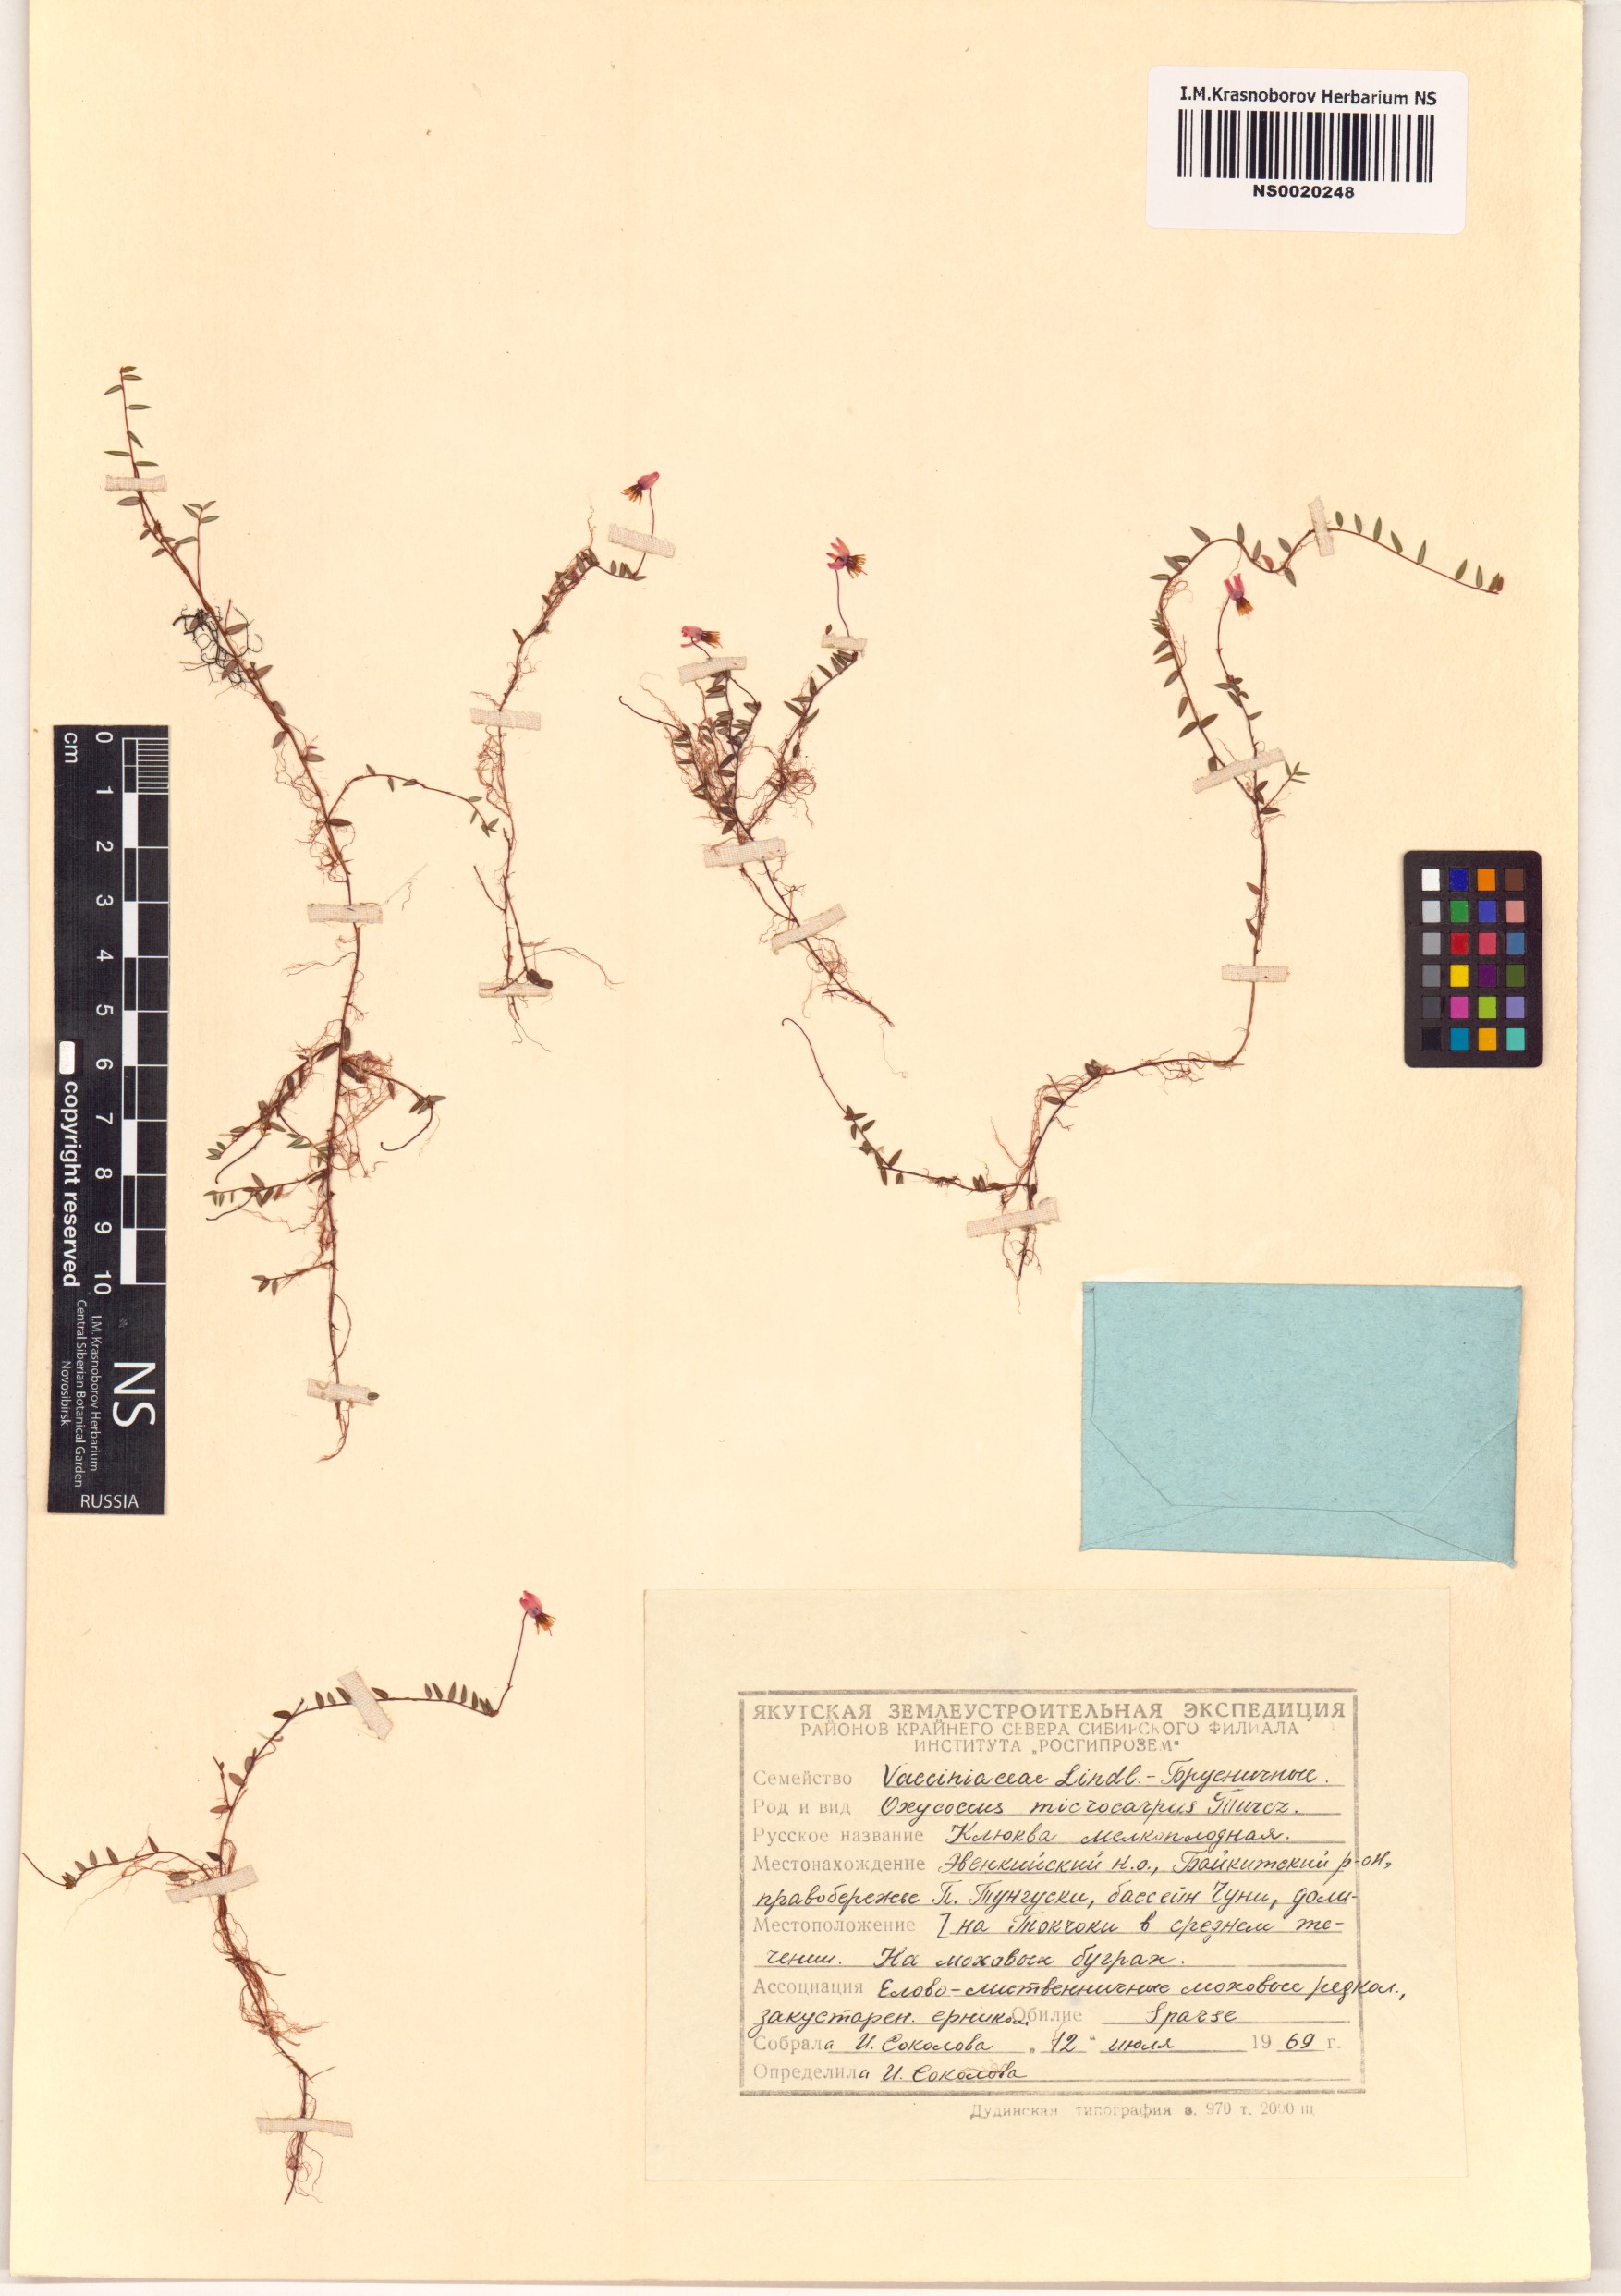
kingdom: Plantae
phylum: Tracheophyta
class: Magnoliopsida
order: Ericales
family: Ericaceae
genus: Vaccinium
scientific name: Vaccinium microcarpum
